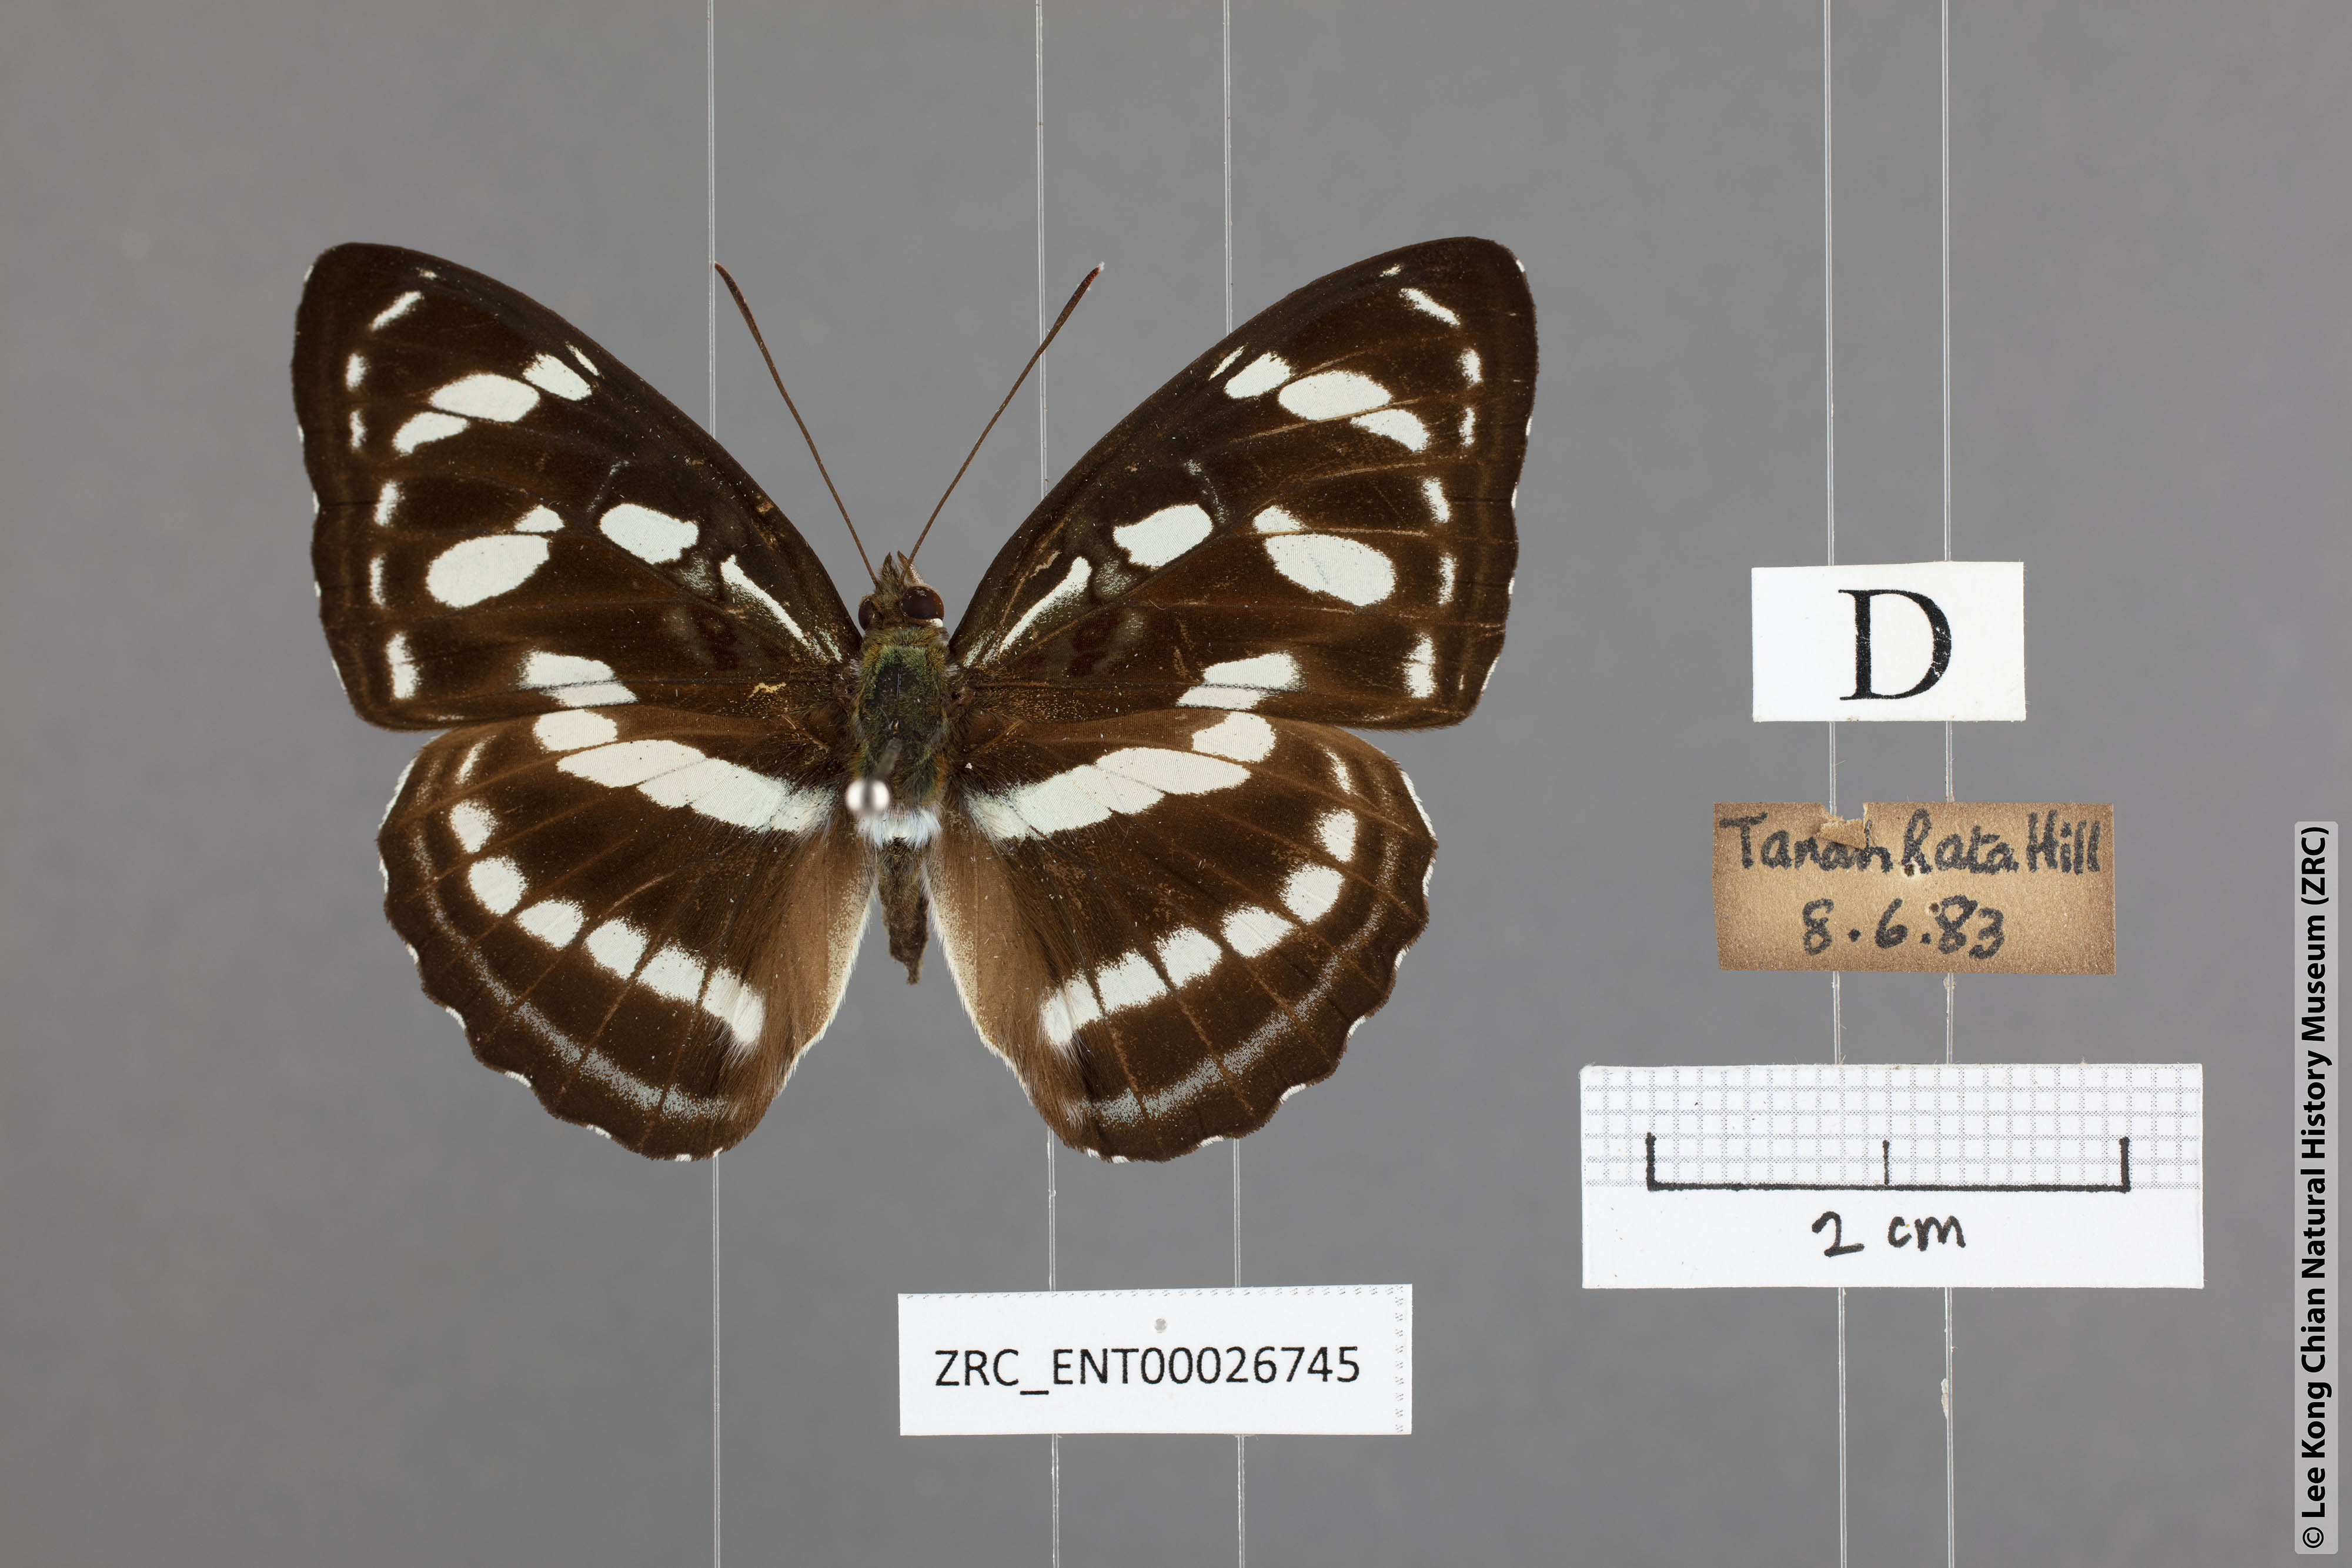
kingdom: Animalia
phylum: Arthropoda
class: Insecta
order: Lepidoptera
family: Nymphalidae
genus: Parathyma
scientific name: Parathyma abiasa
